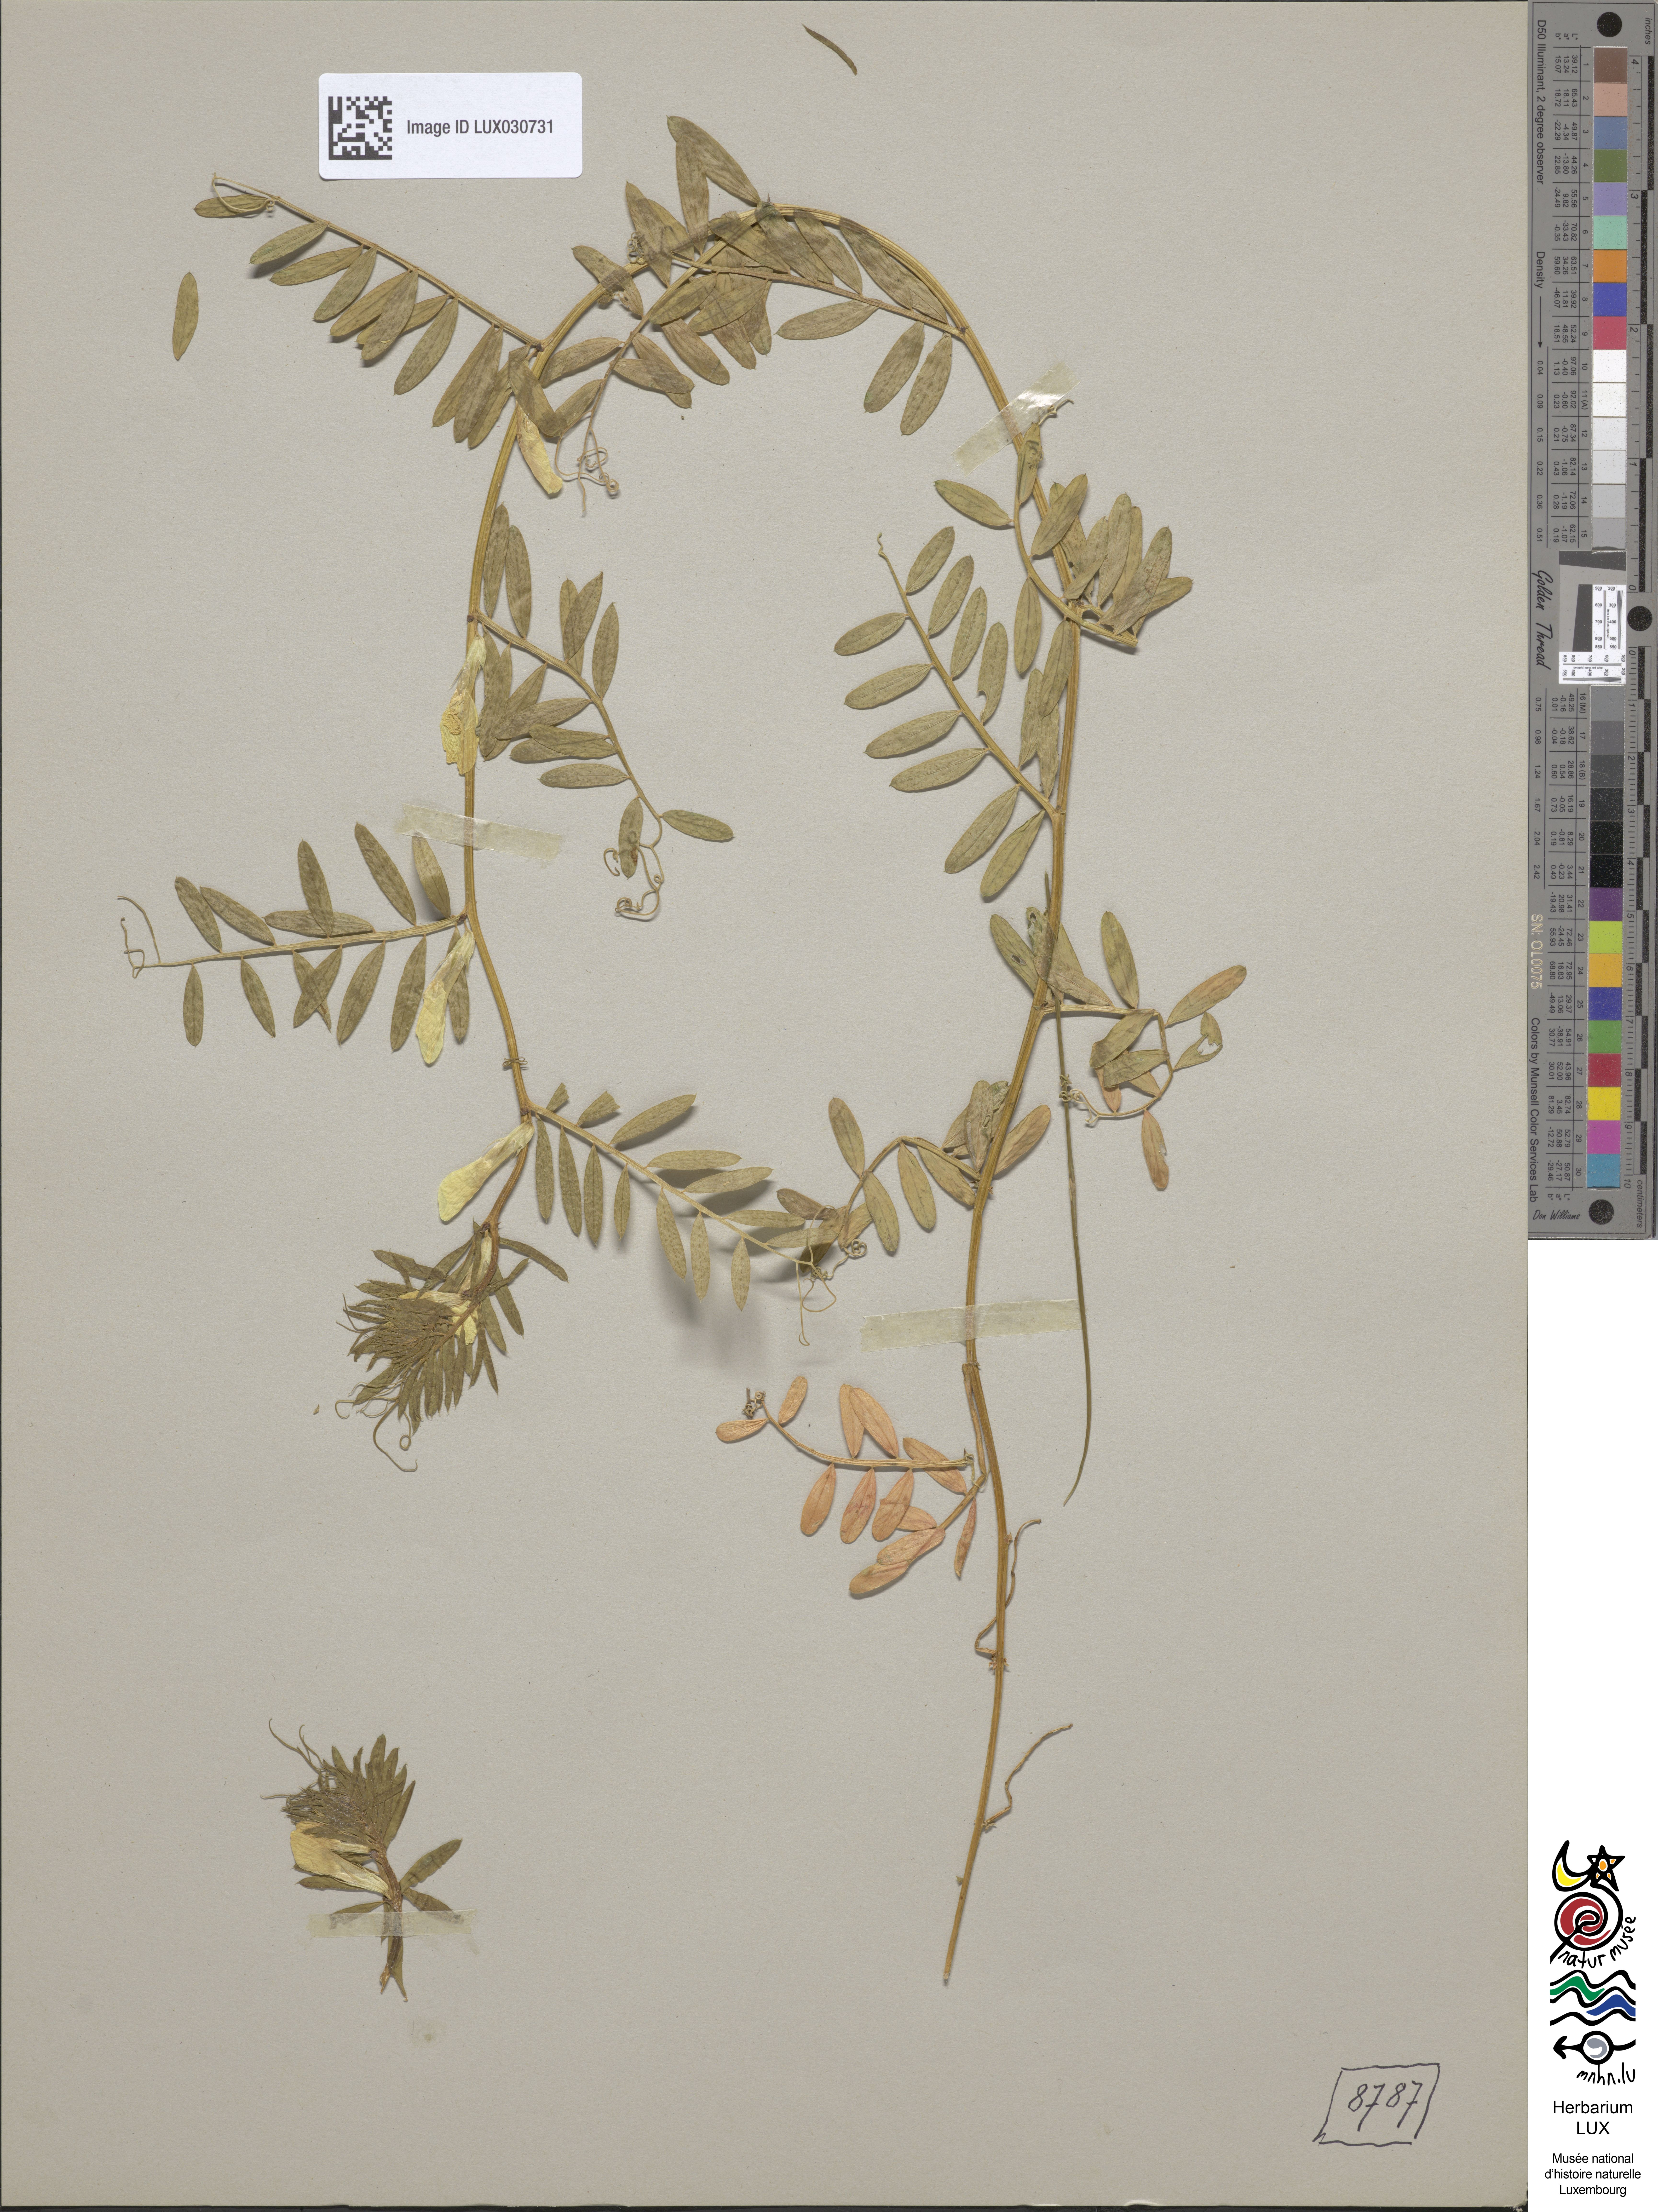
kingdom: Plantae
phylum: Tracheophyta
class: Magnoliopsida
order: Fabales
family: Fabaceae
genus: Vicia
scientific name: Vicia lutea
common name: Smooth yellow vetch
